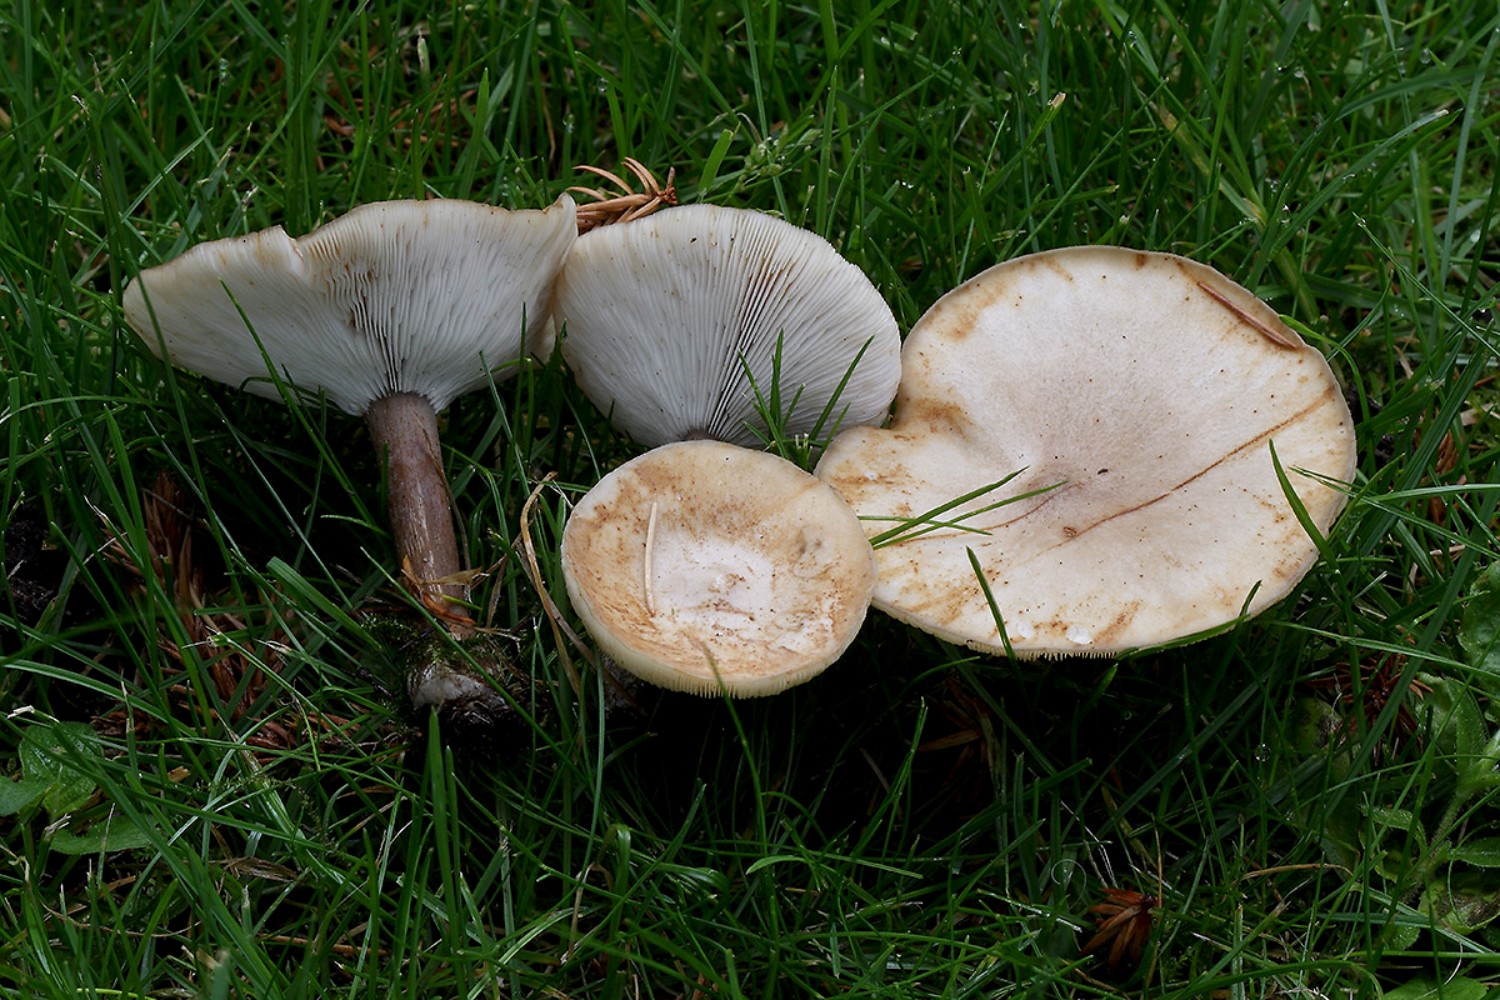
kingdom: Fungi
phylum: Basidiomycota
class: Agaricomycetes
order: Agaricales
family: Tricholomataceae
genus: Melanoleuca
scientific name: Melanoleuca exscissa
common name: gusten munkehat
